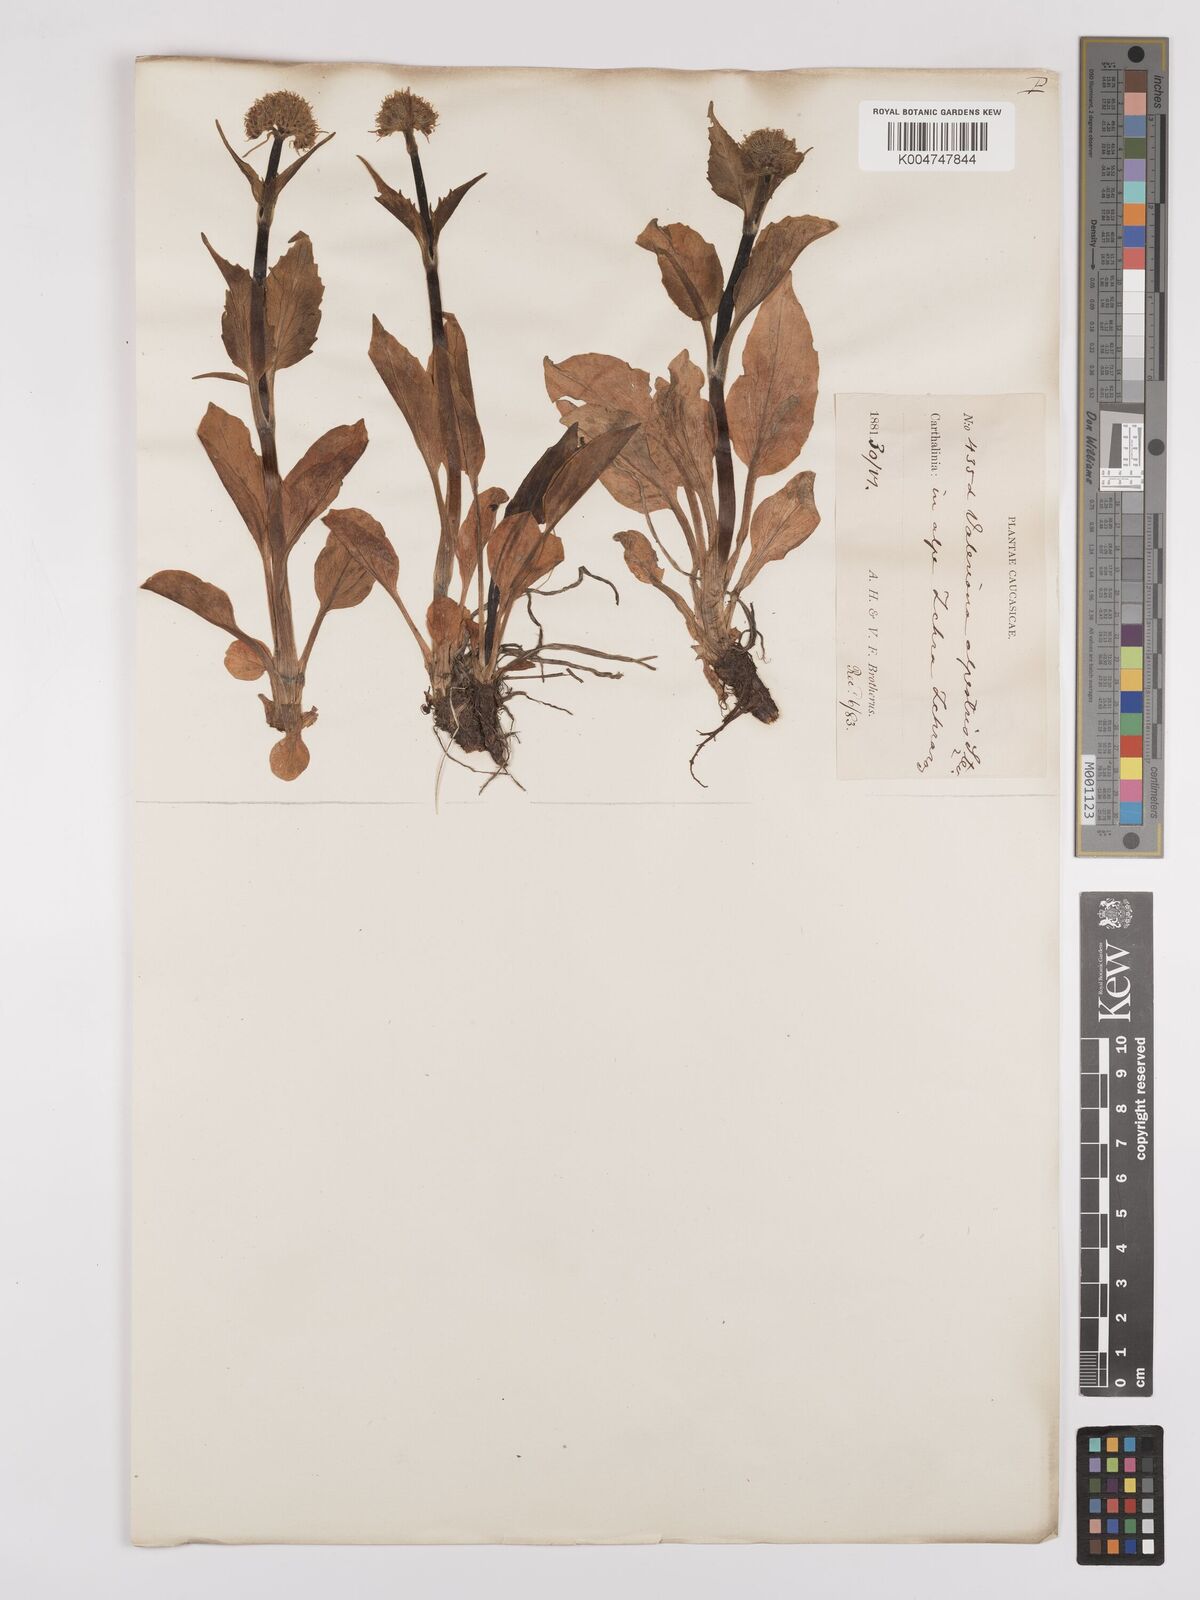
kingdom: Plantae
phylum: Tracheophyta
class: Magnoliopsida
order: Dipsacales
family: Caprifoliaceae
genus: Valeriana
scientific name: Valeriana alpestris
